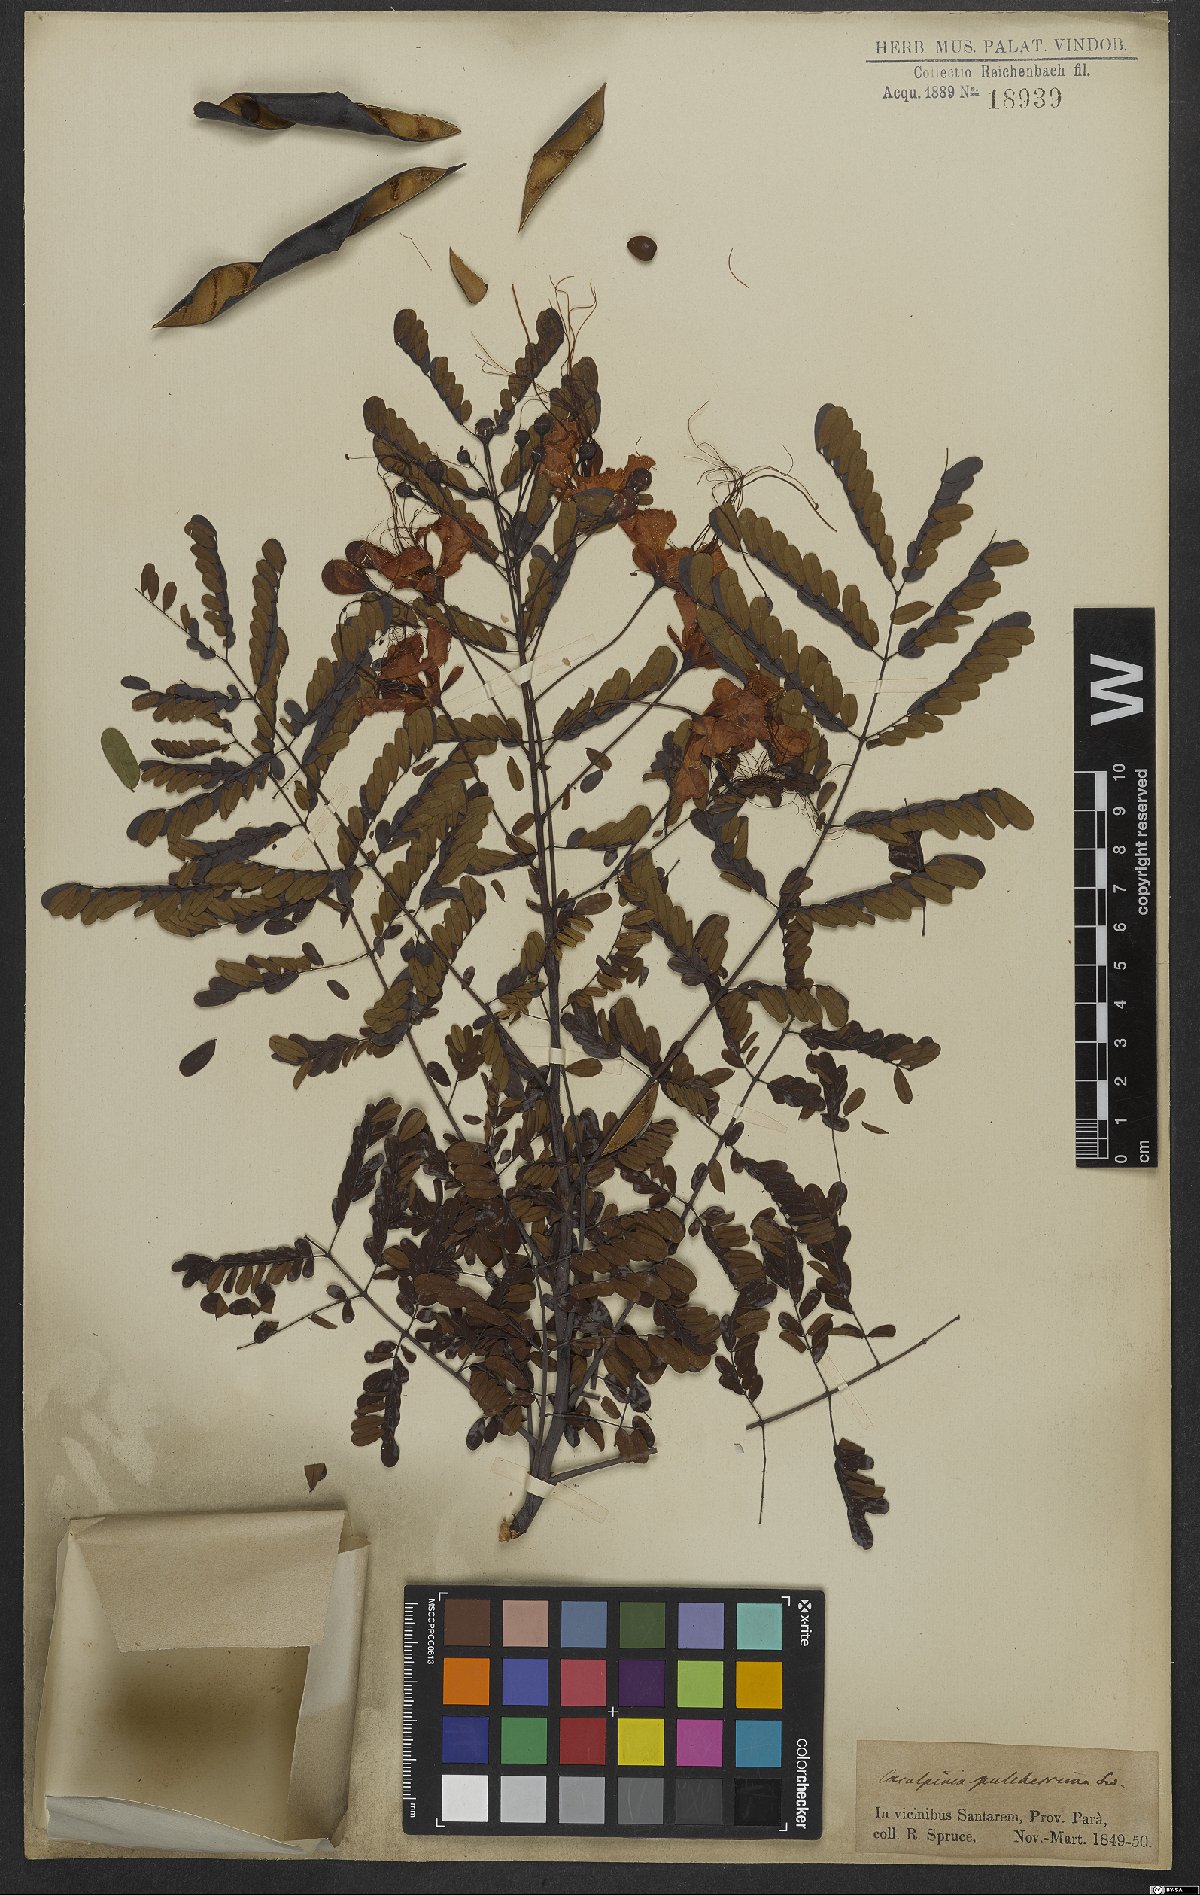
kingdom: Plantae
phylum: Tracheophyta
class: Magnoliopsida
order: Fabales
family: Fabaceae
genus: Caesalpinia
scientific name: Caesalpinia pulcherrima
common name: Pride-of-barbados
